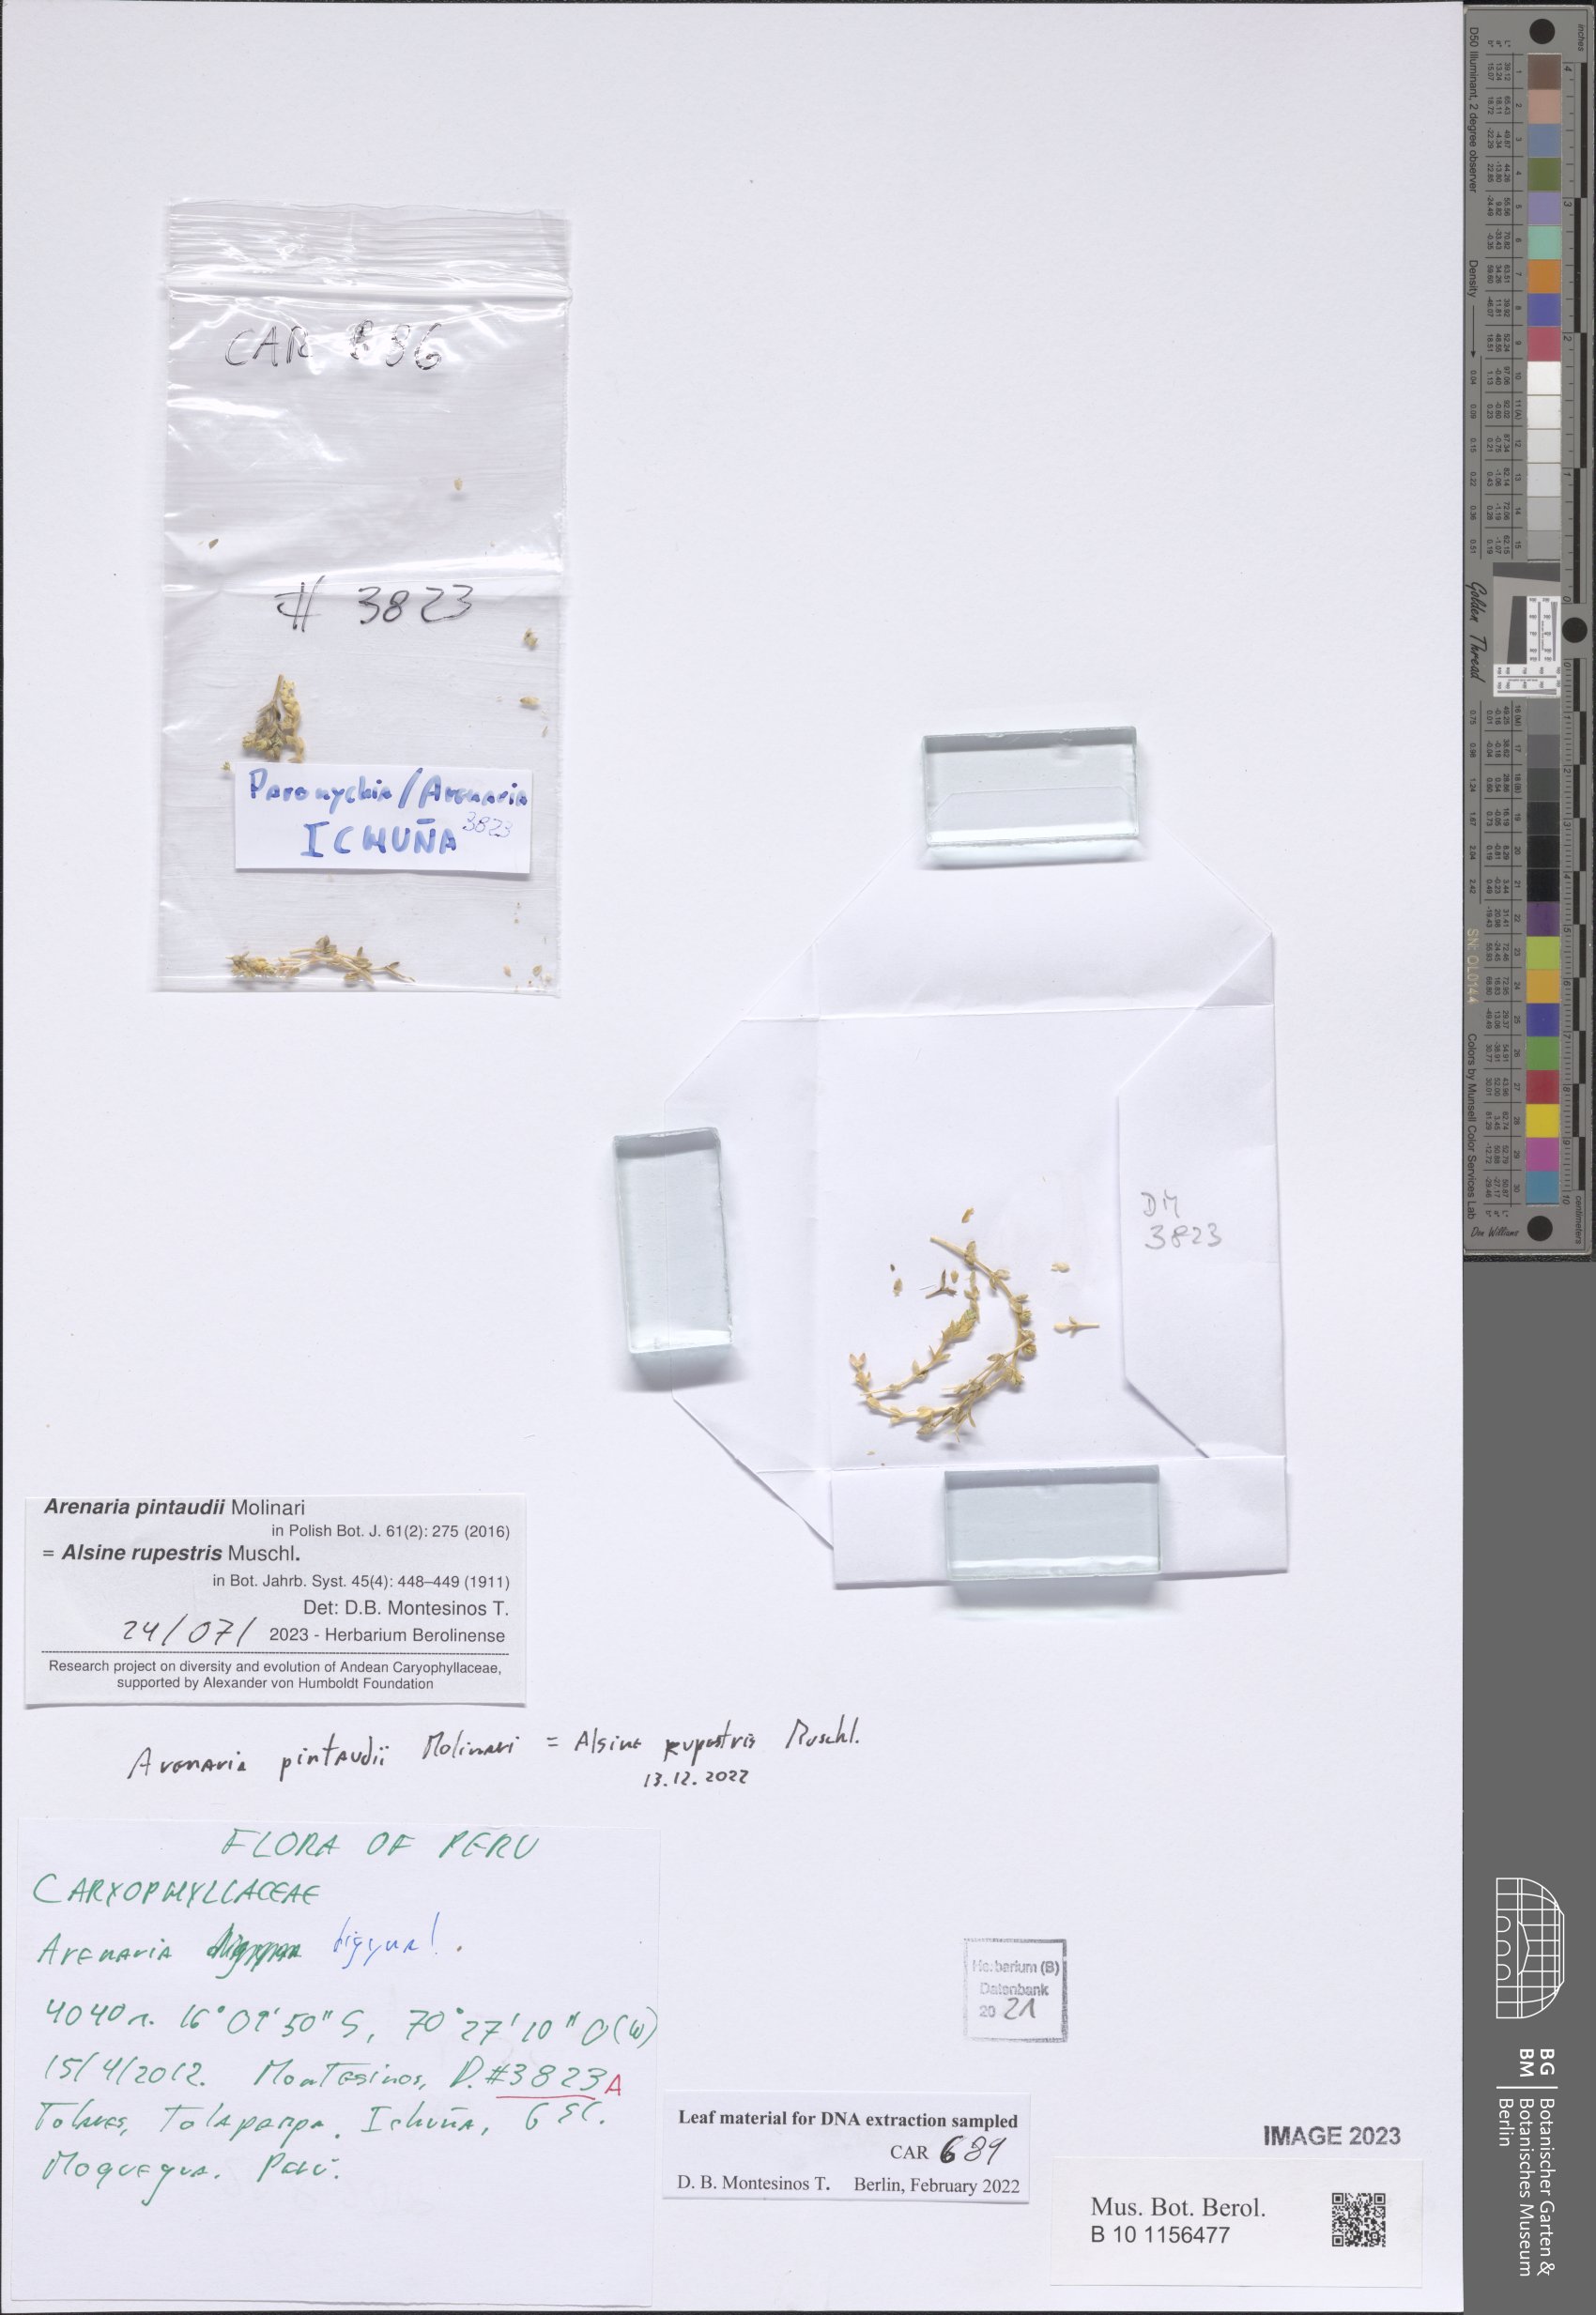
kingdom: Plantae
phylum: Tracheophyta
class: Magnoliopsida
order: Caryophyllales
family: Caryophyllaceae
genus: Arenaria
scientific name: Arenaria
